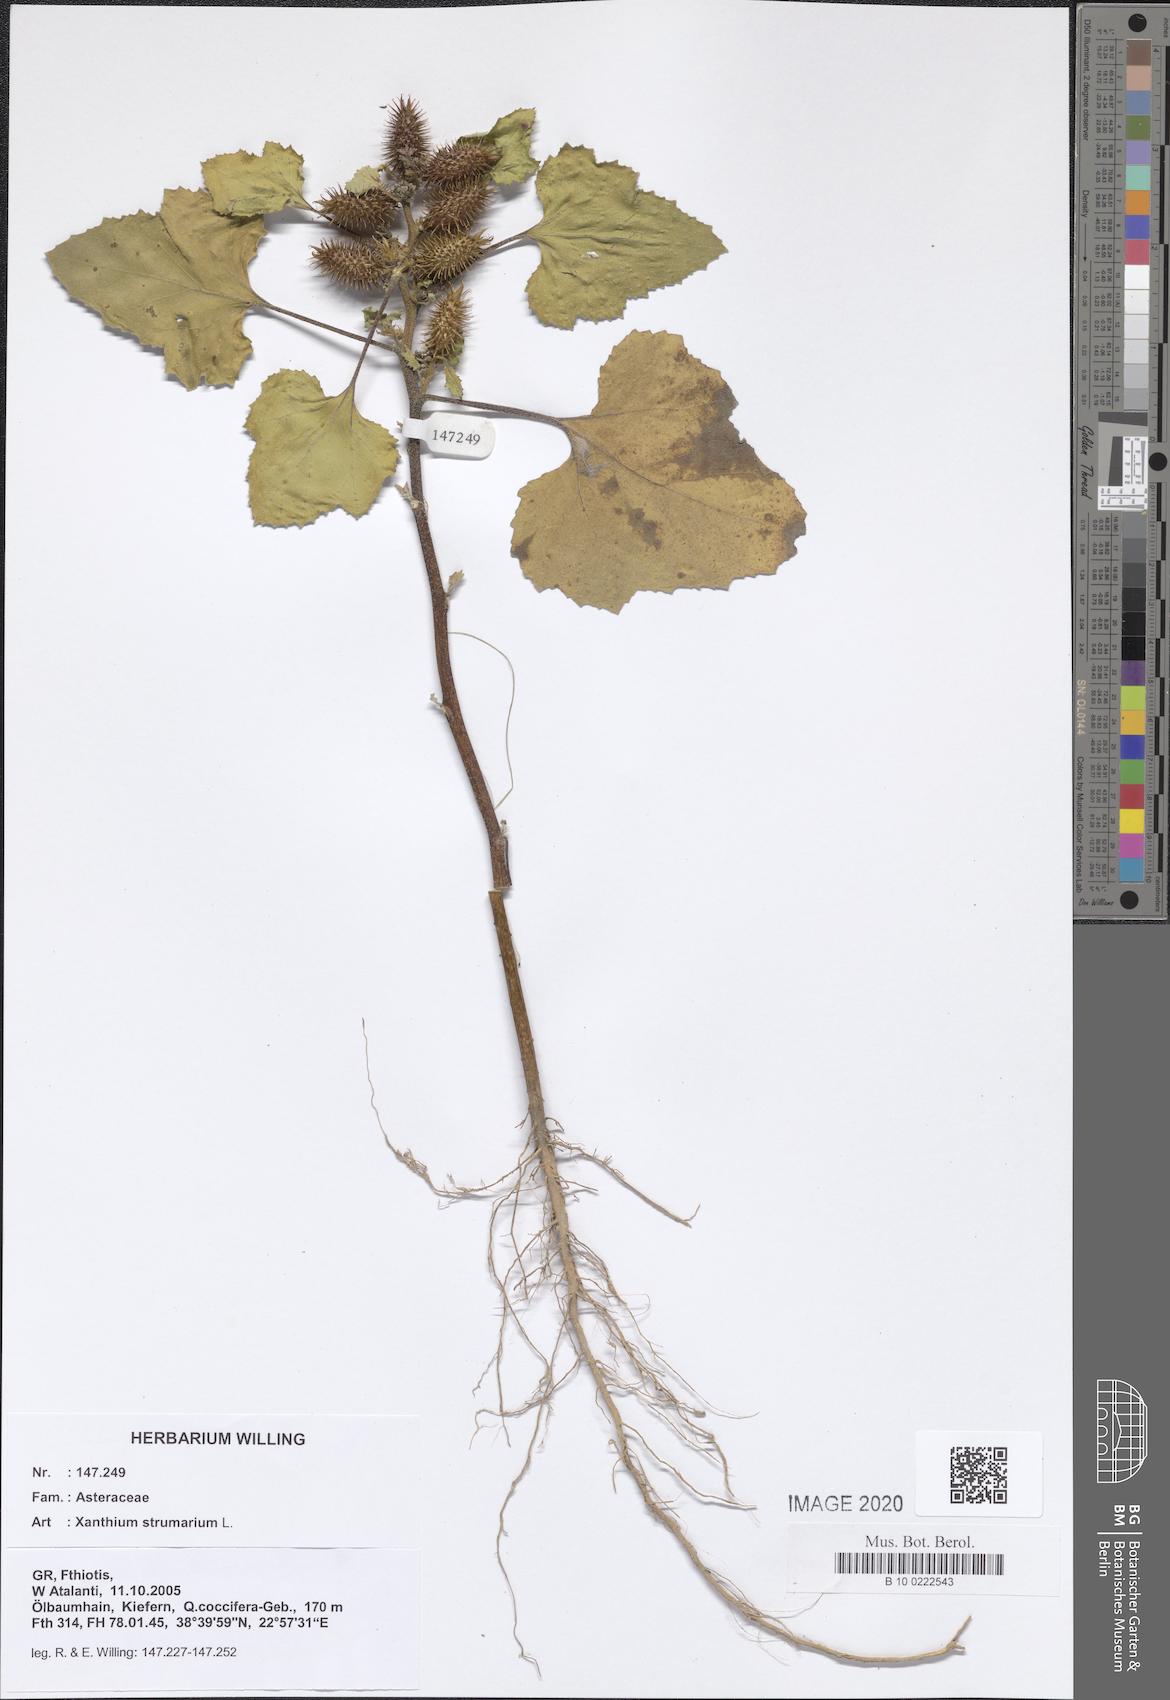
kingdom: Plantae
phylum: Tracheophyta
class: Magnoliopsida
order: Asterales
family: Asteraceae
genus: Xanthium
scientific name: Xanthium strumarium
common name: Rough cocklebur
